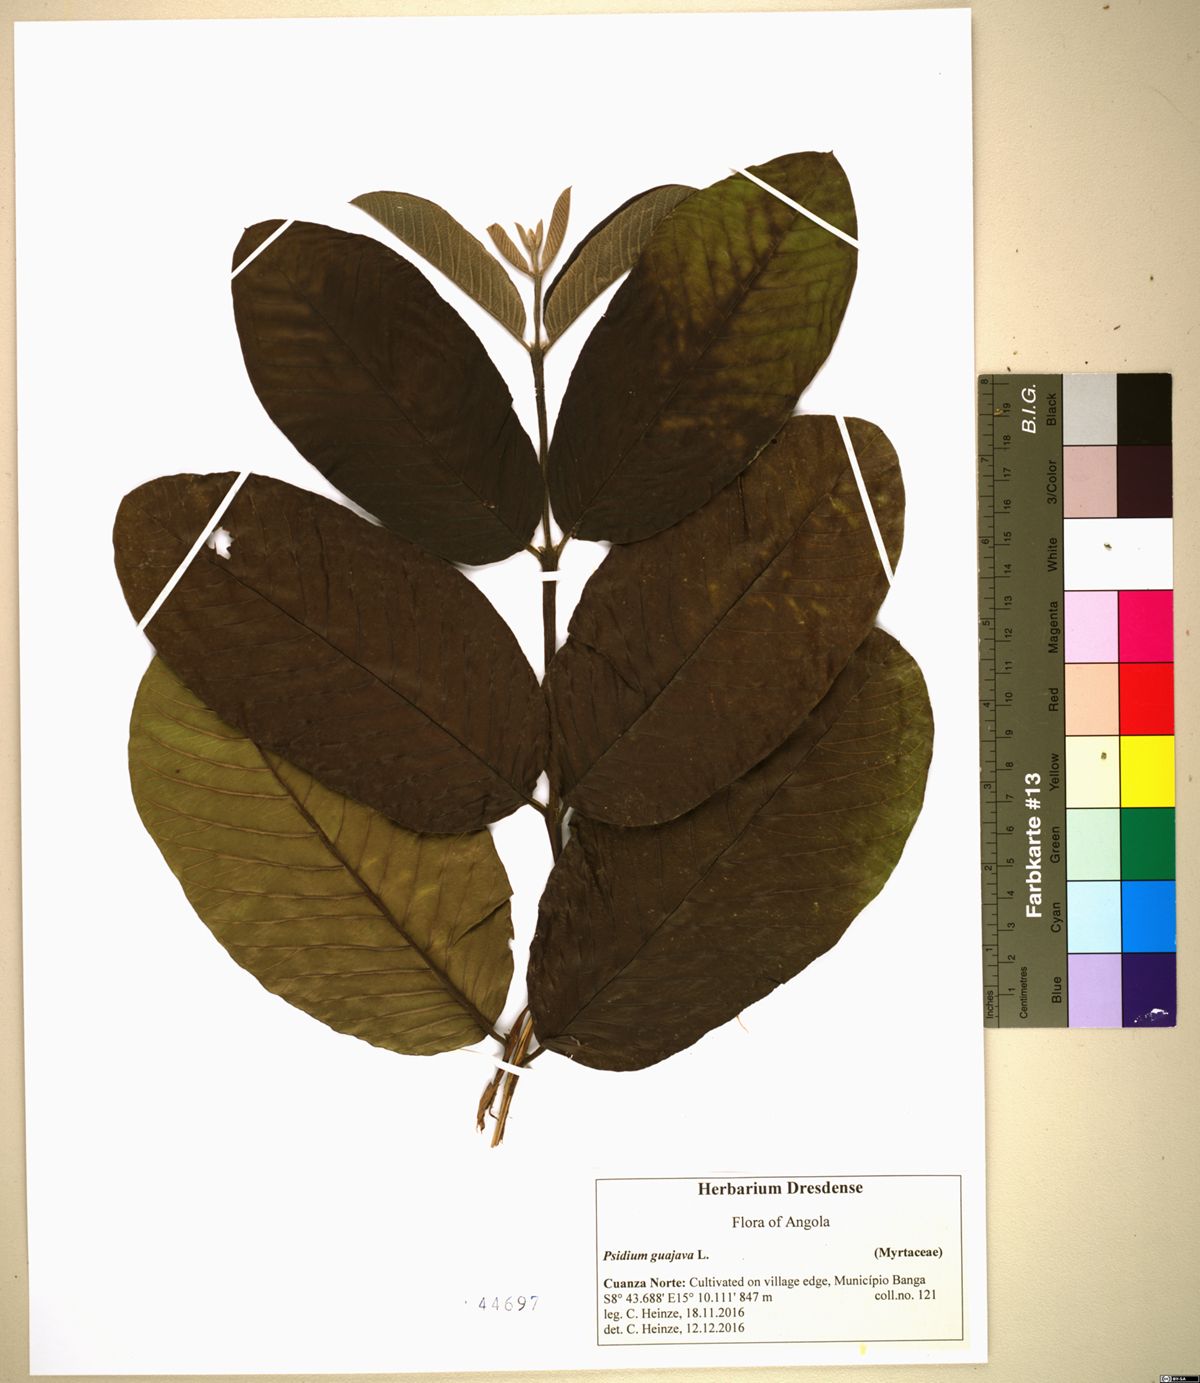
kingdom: Plantae
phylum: Tracheophyta
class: Magnoliopsida
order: Myrtales
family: Myrtaceae
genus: Psidium
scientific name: Psidium guajava
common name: Guava
